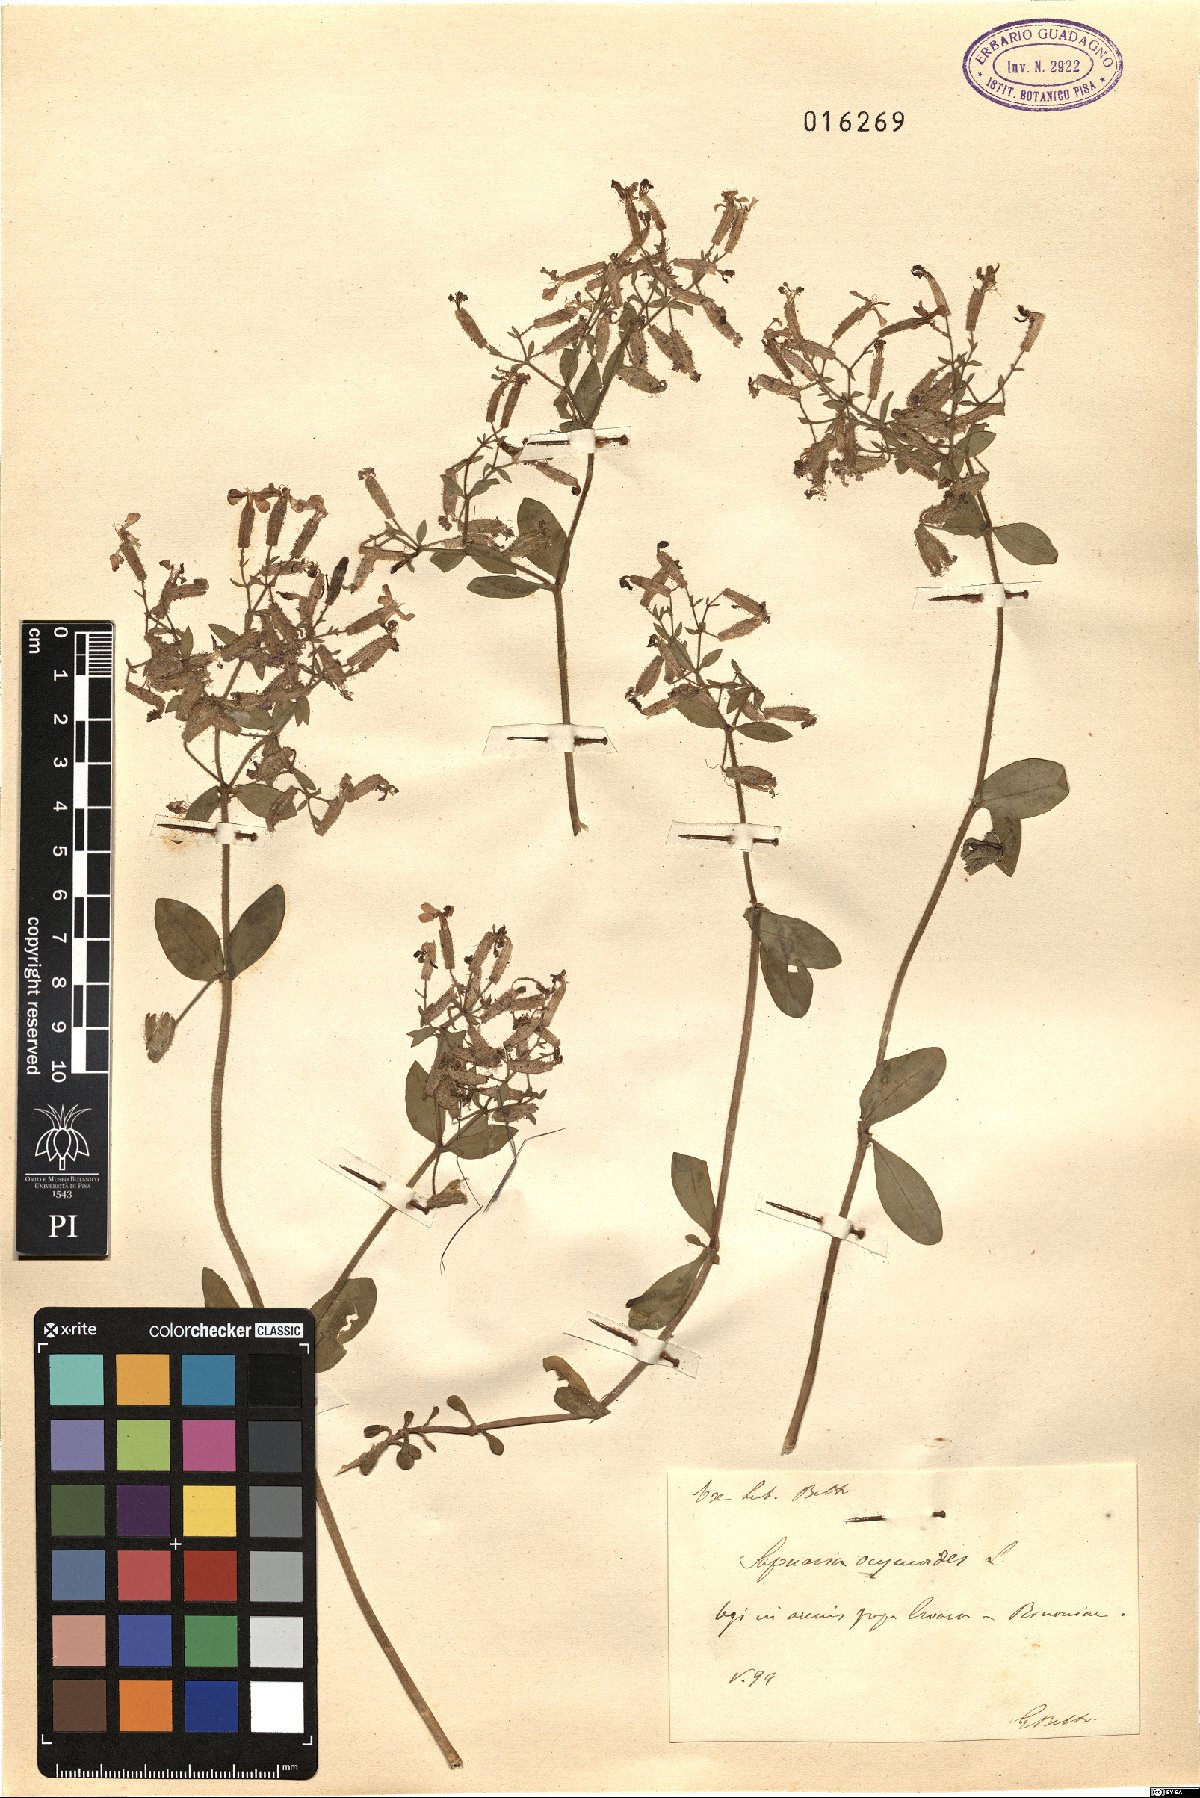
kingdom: Plantae
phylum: Tracheophyta
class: Magnoliopsida
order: Caryophyllales
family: Caryophyllaceae
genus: Saponaria
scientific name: Saponaria ocymoides
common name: Rock soapwort
